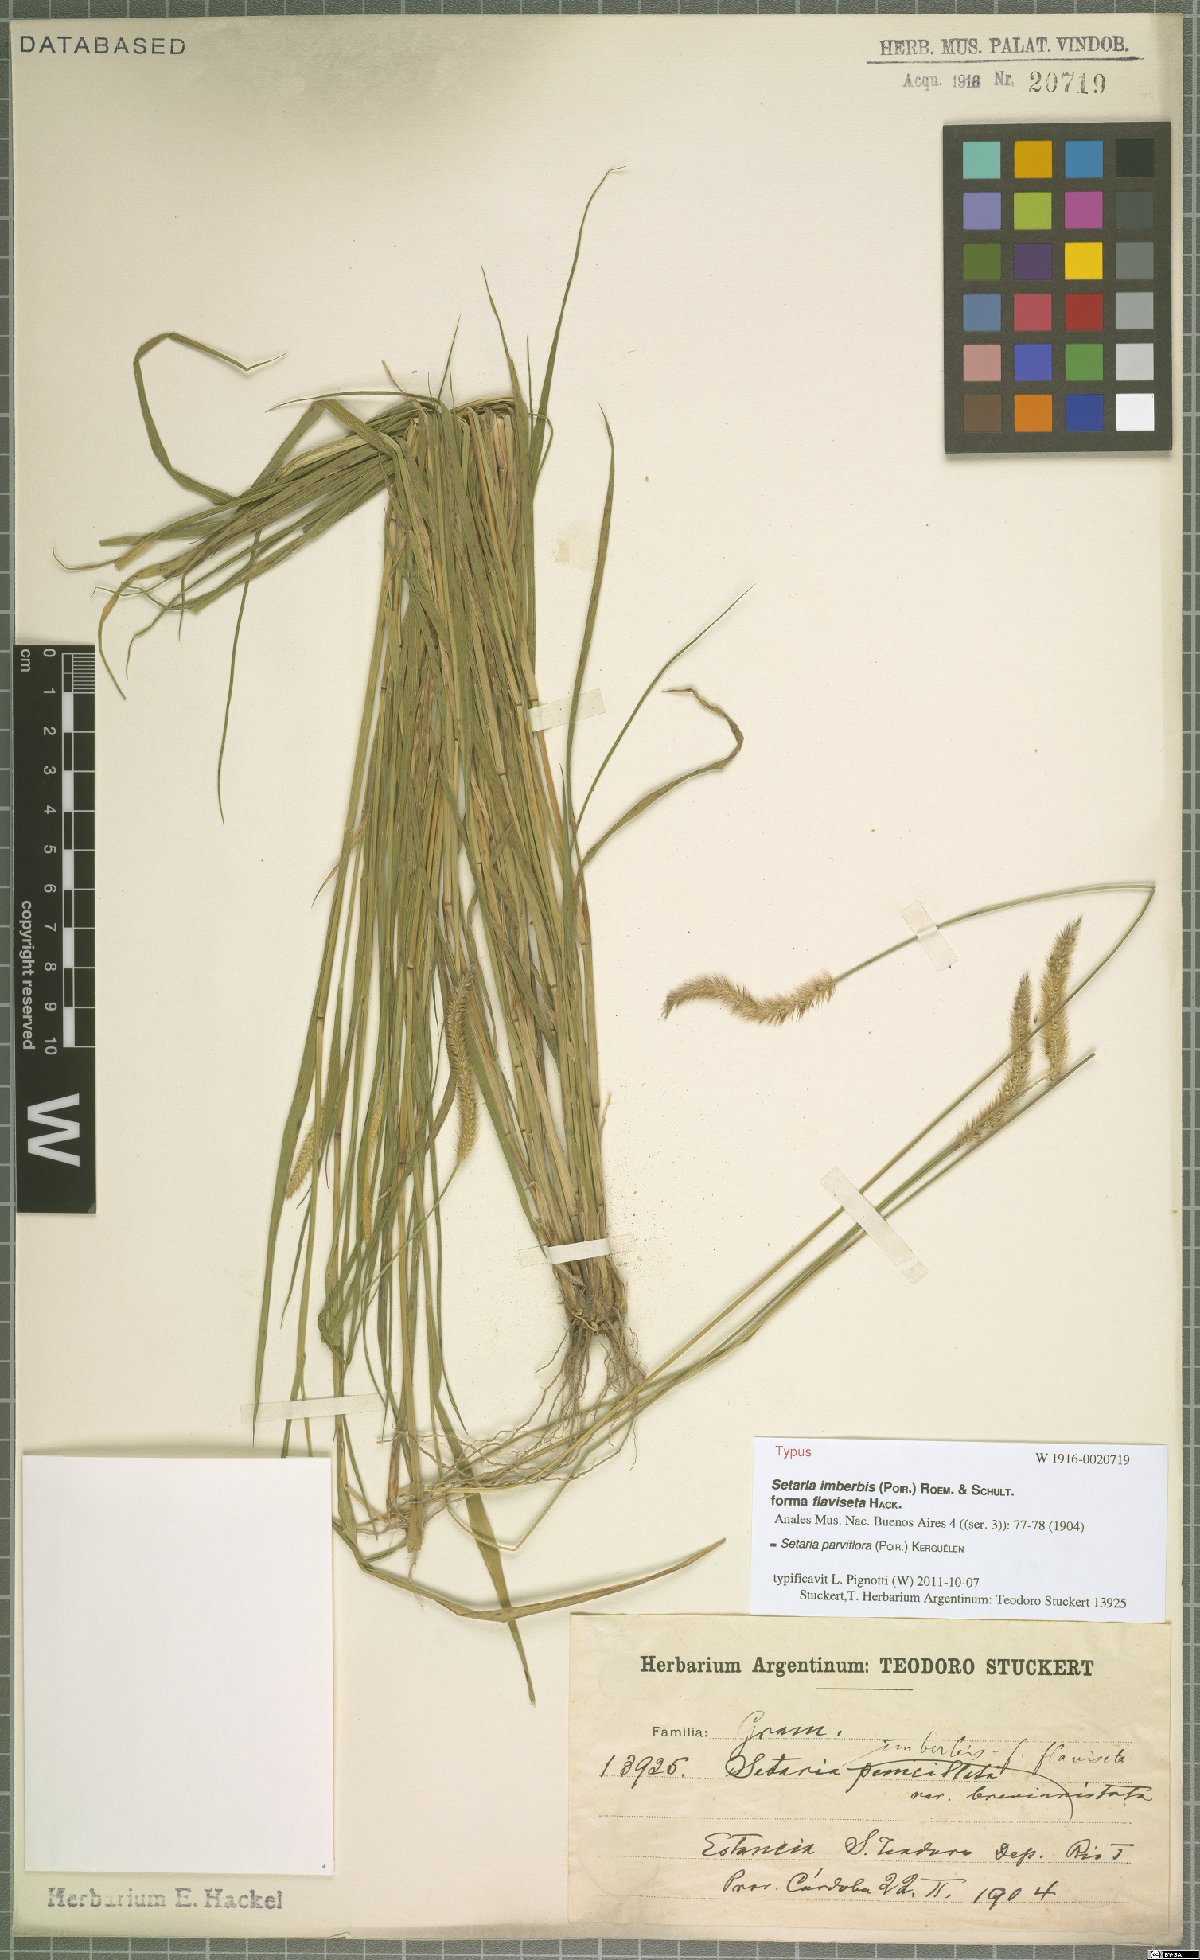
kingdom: Plantae
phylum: Tracheophyta
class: Liliopsida
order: Poales
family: Poaceae
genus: Setaria
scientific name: Setaria parviflora
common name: Knotroot bristle-grass
